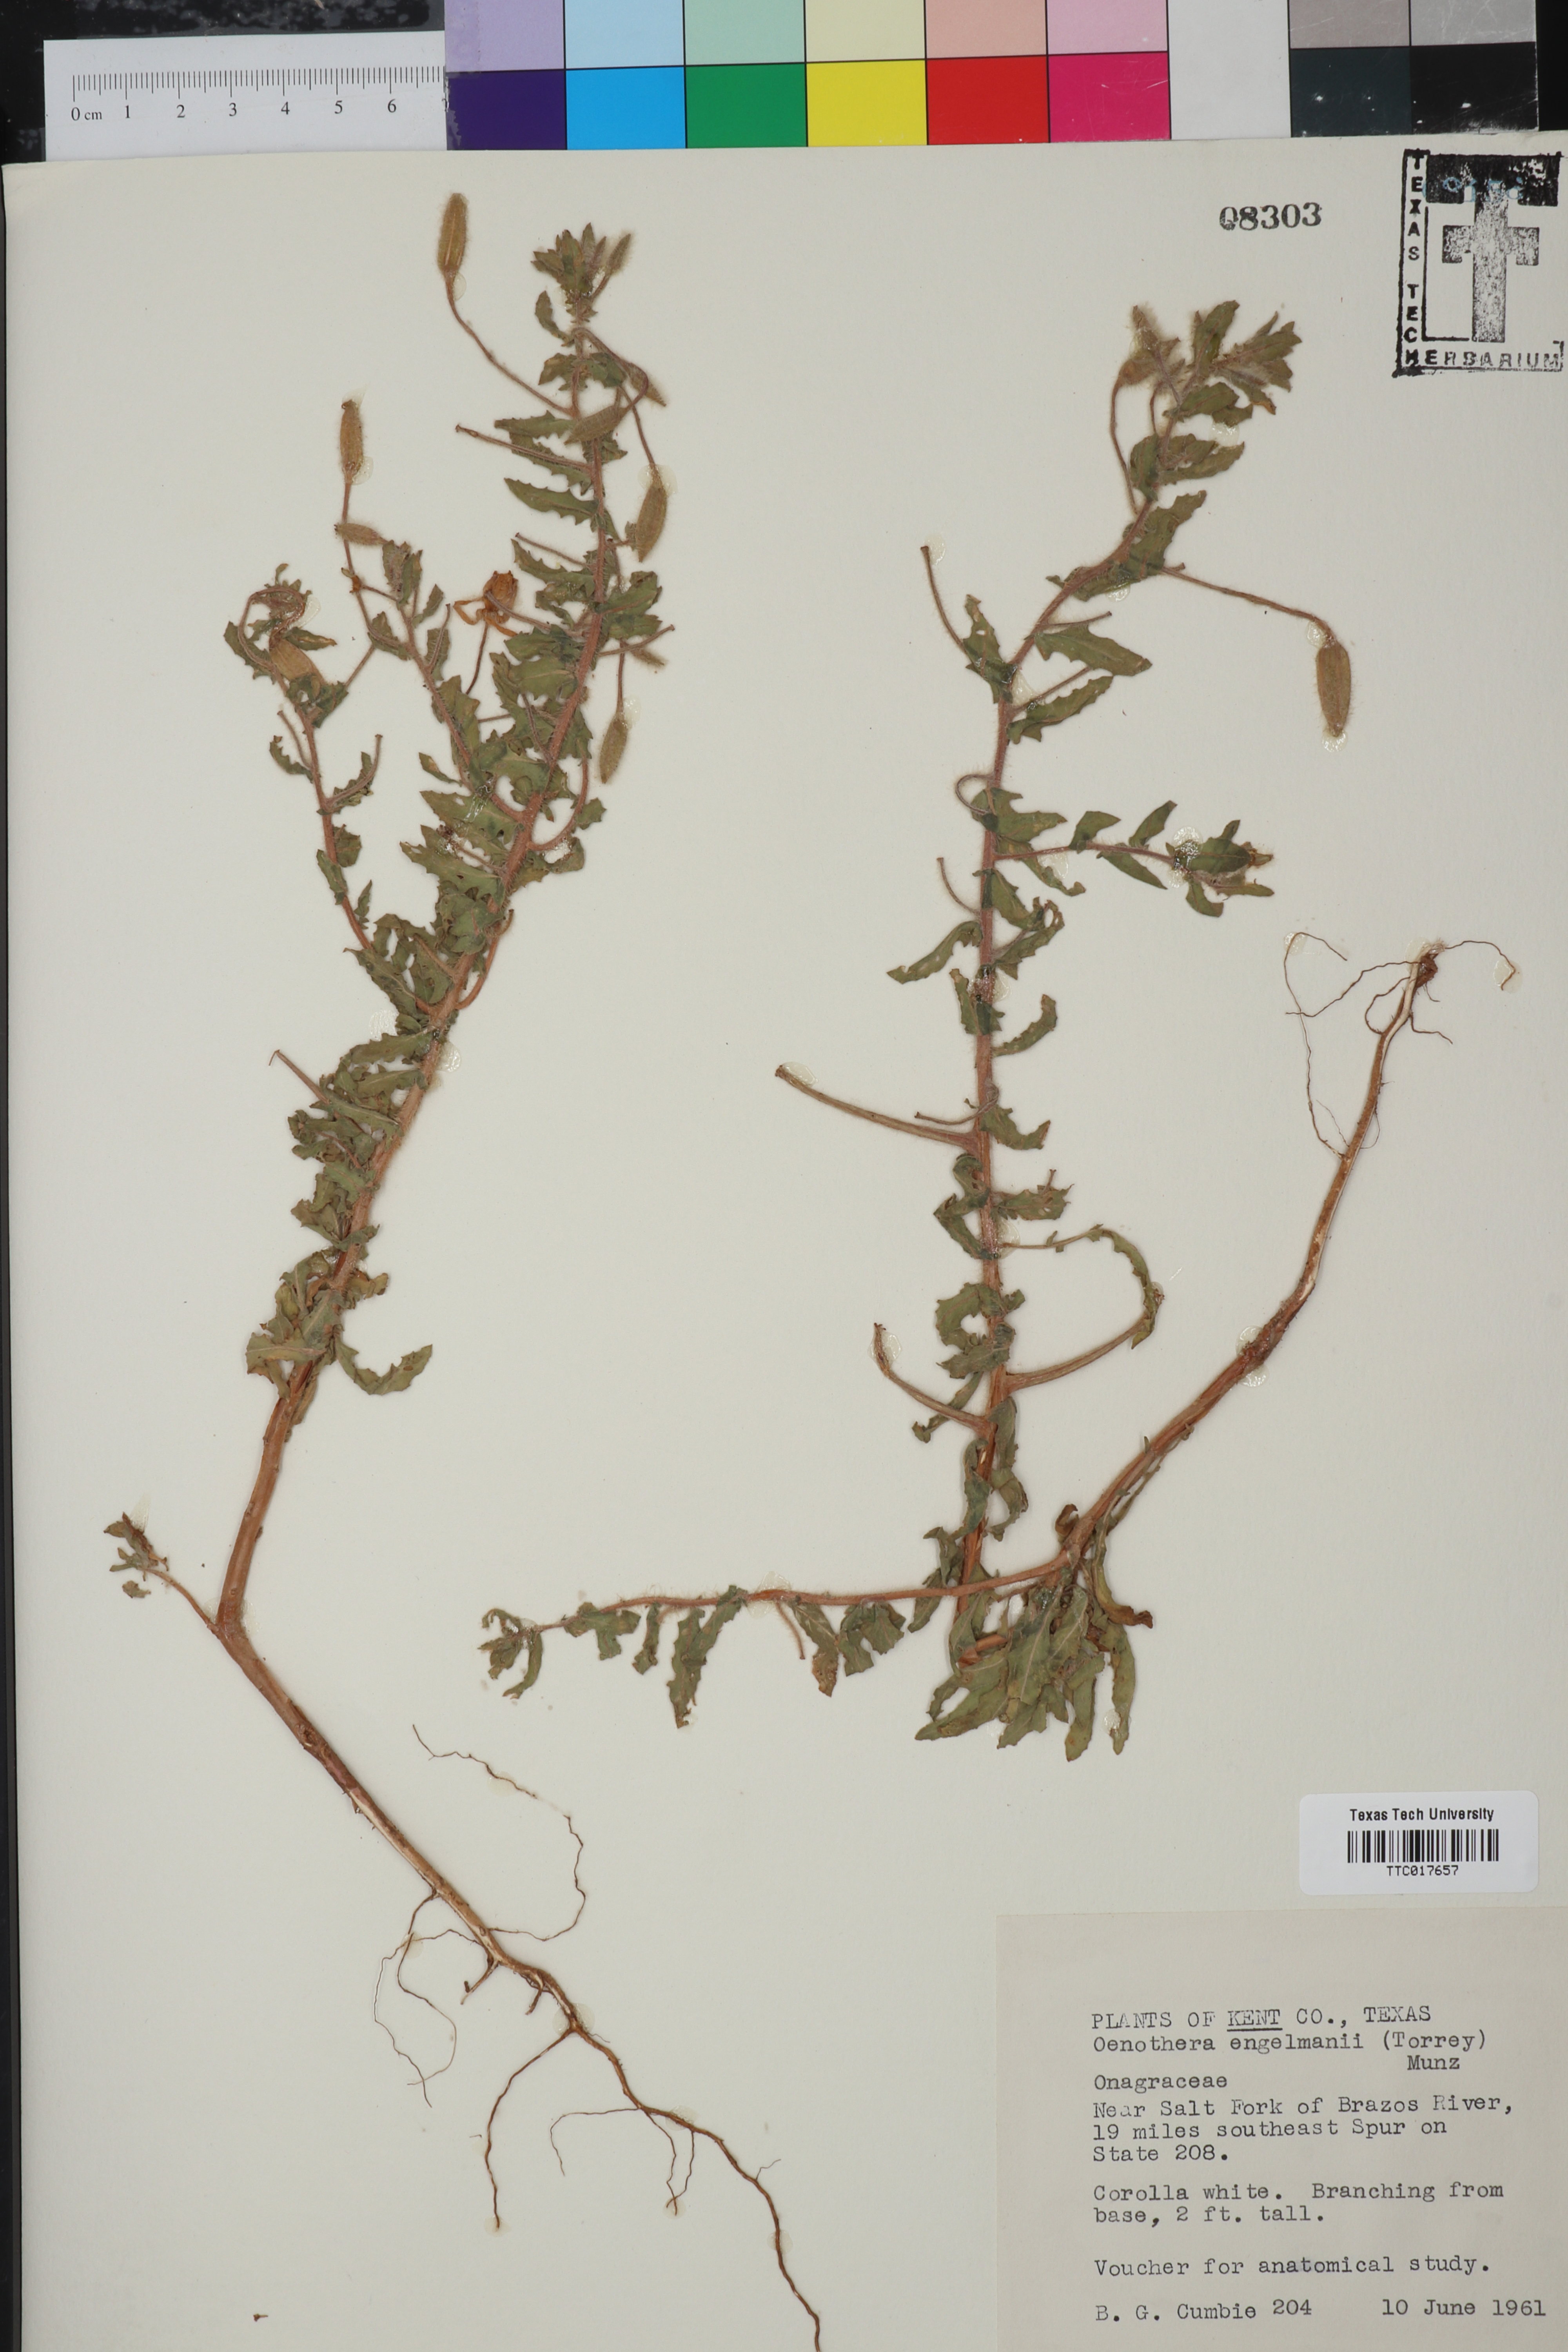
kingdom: Plantae
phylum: Tracheophyta
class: Magnoliopsida
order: Myrtales
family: Onagraceae
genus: Oenothera
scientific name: Oenothera engelmannii
